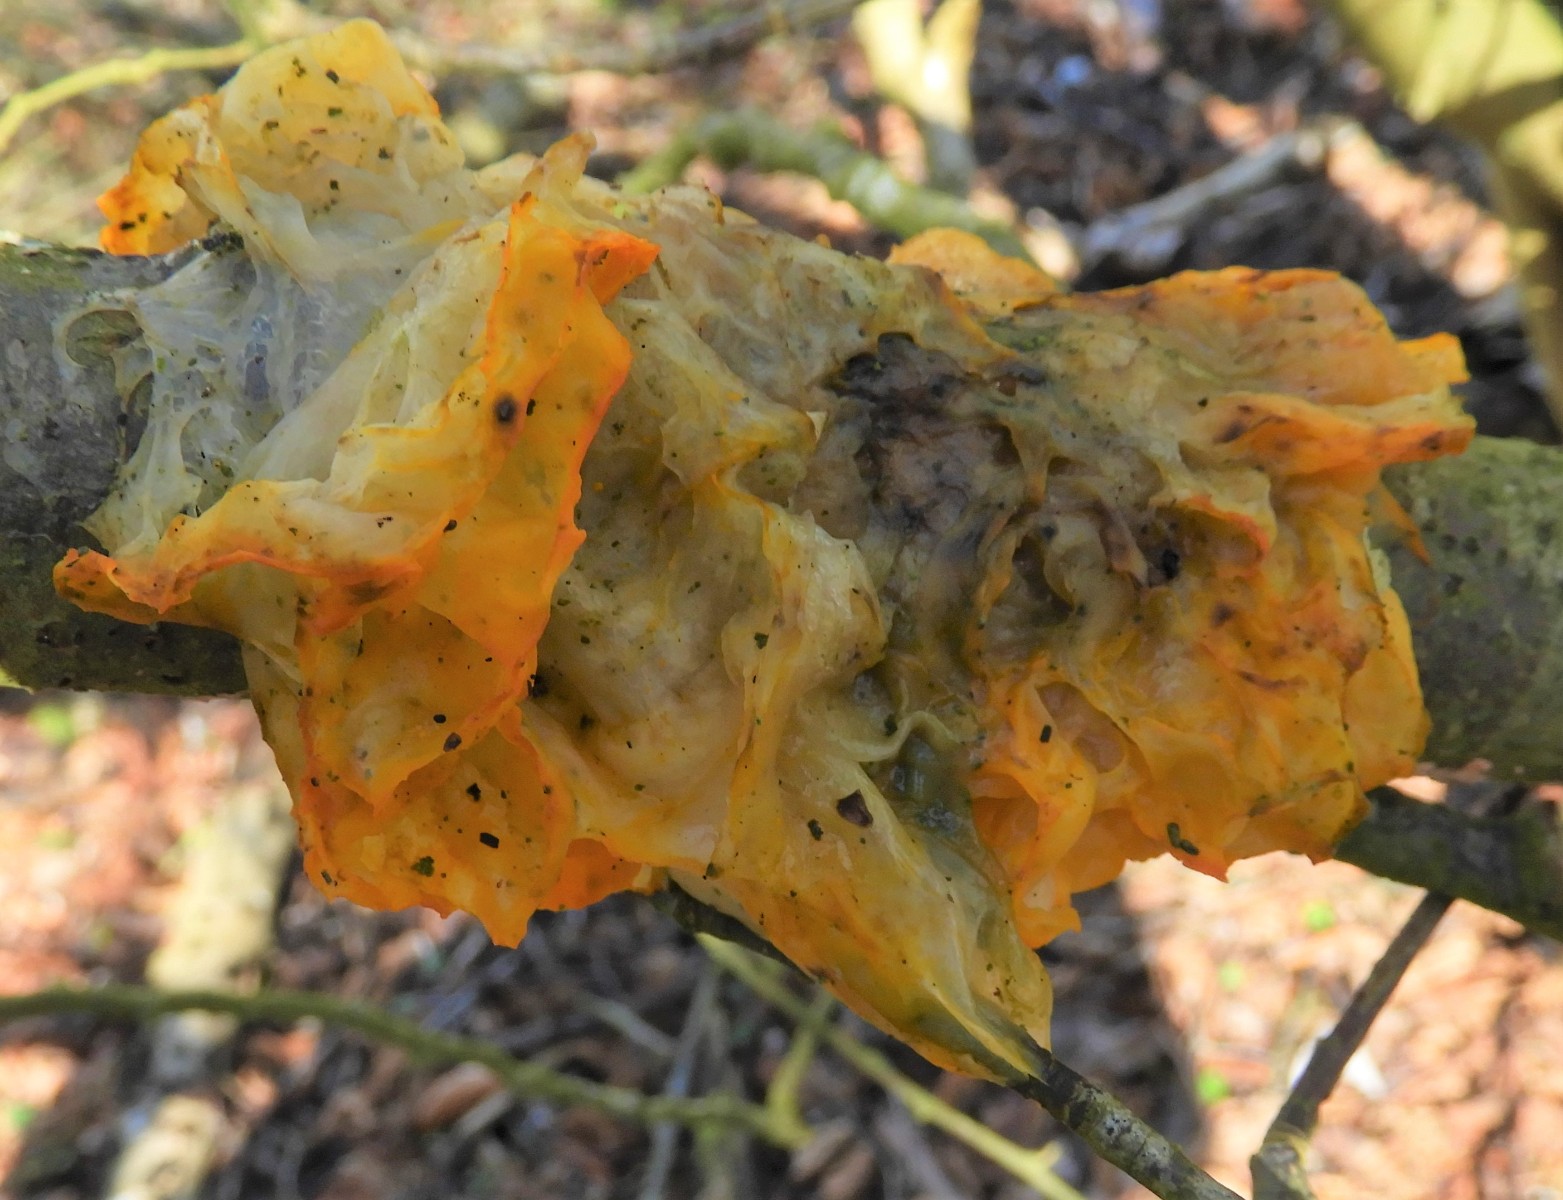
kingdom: Fungi
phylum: Basidiomycota
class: Tremellomycetes
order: Tremellales
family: Tremellaceae
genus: Tremella
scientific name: Tremella mesenterica
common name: gul bævresvamp
